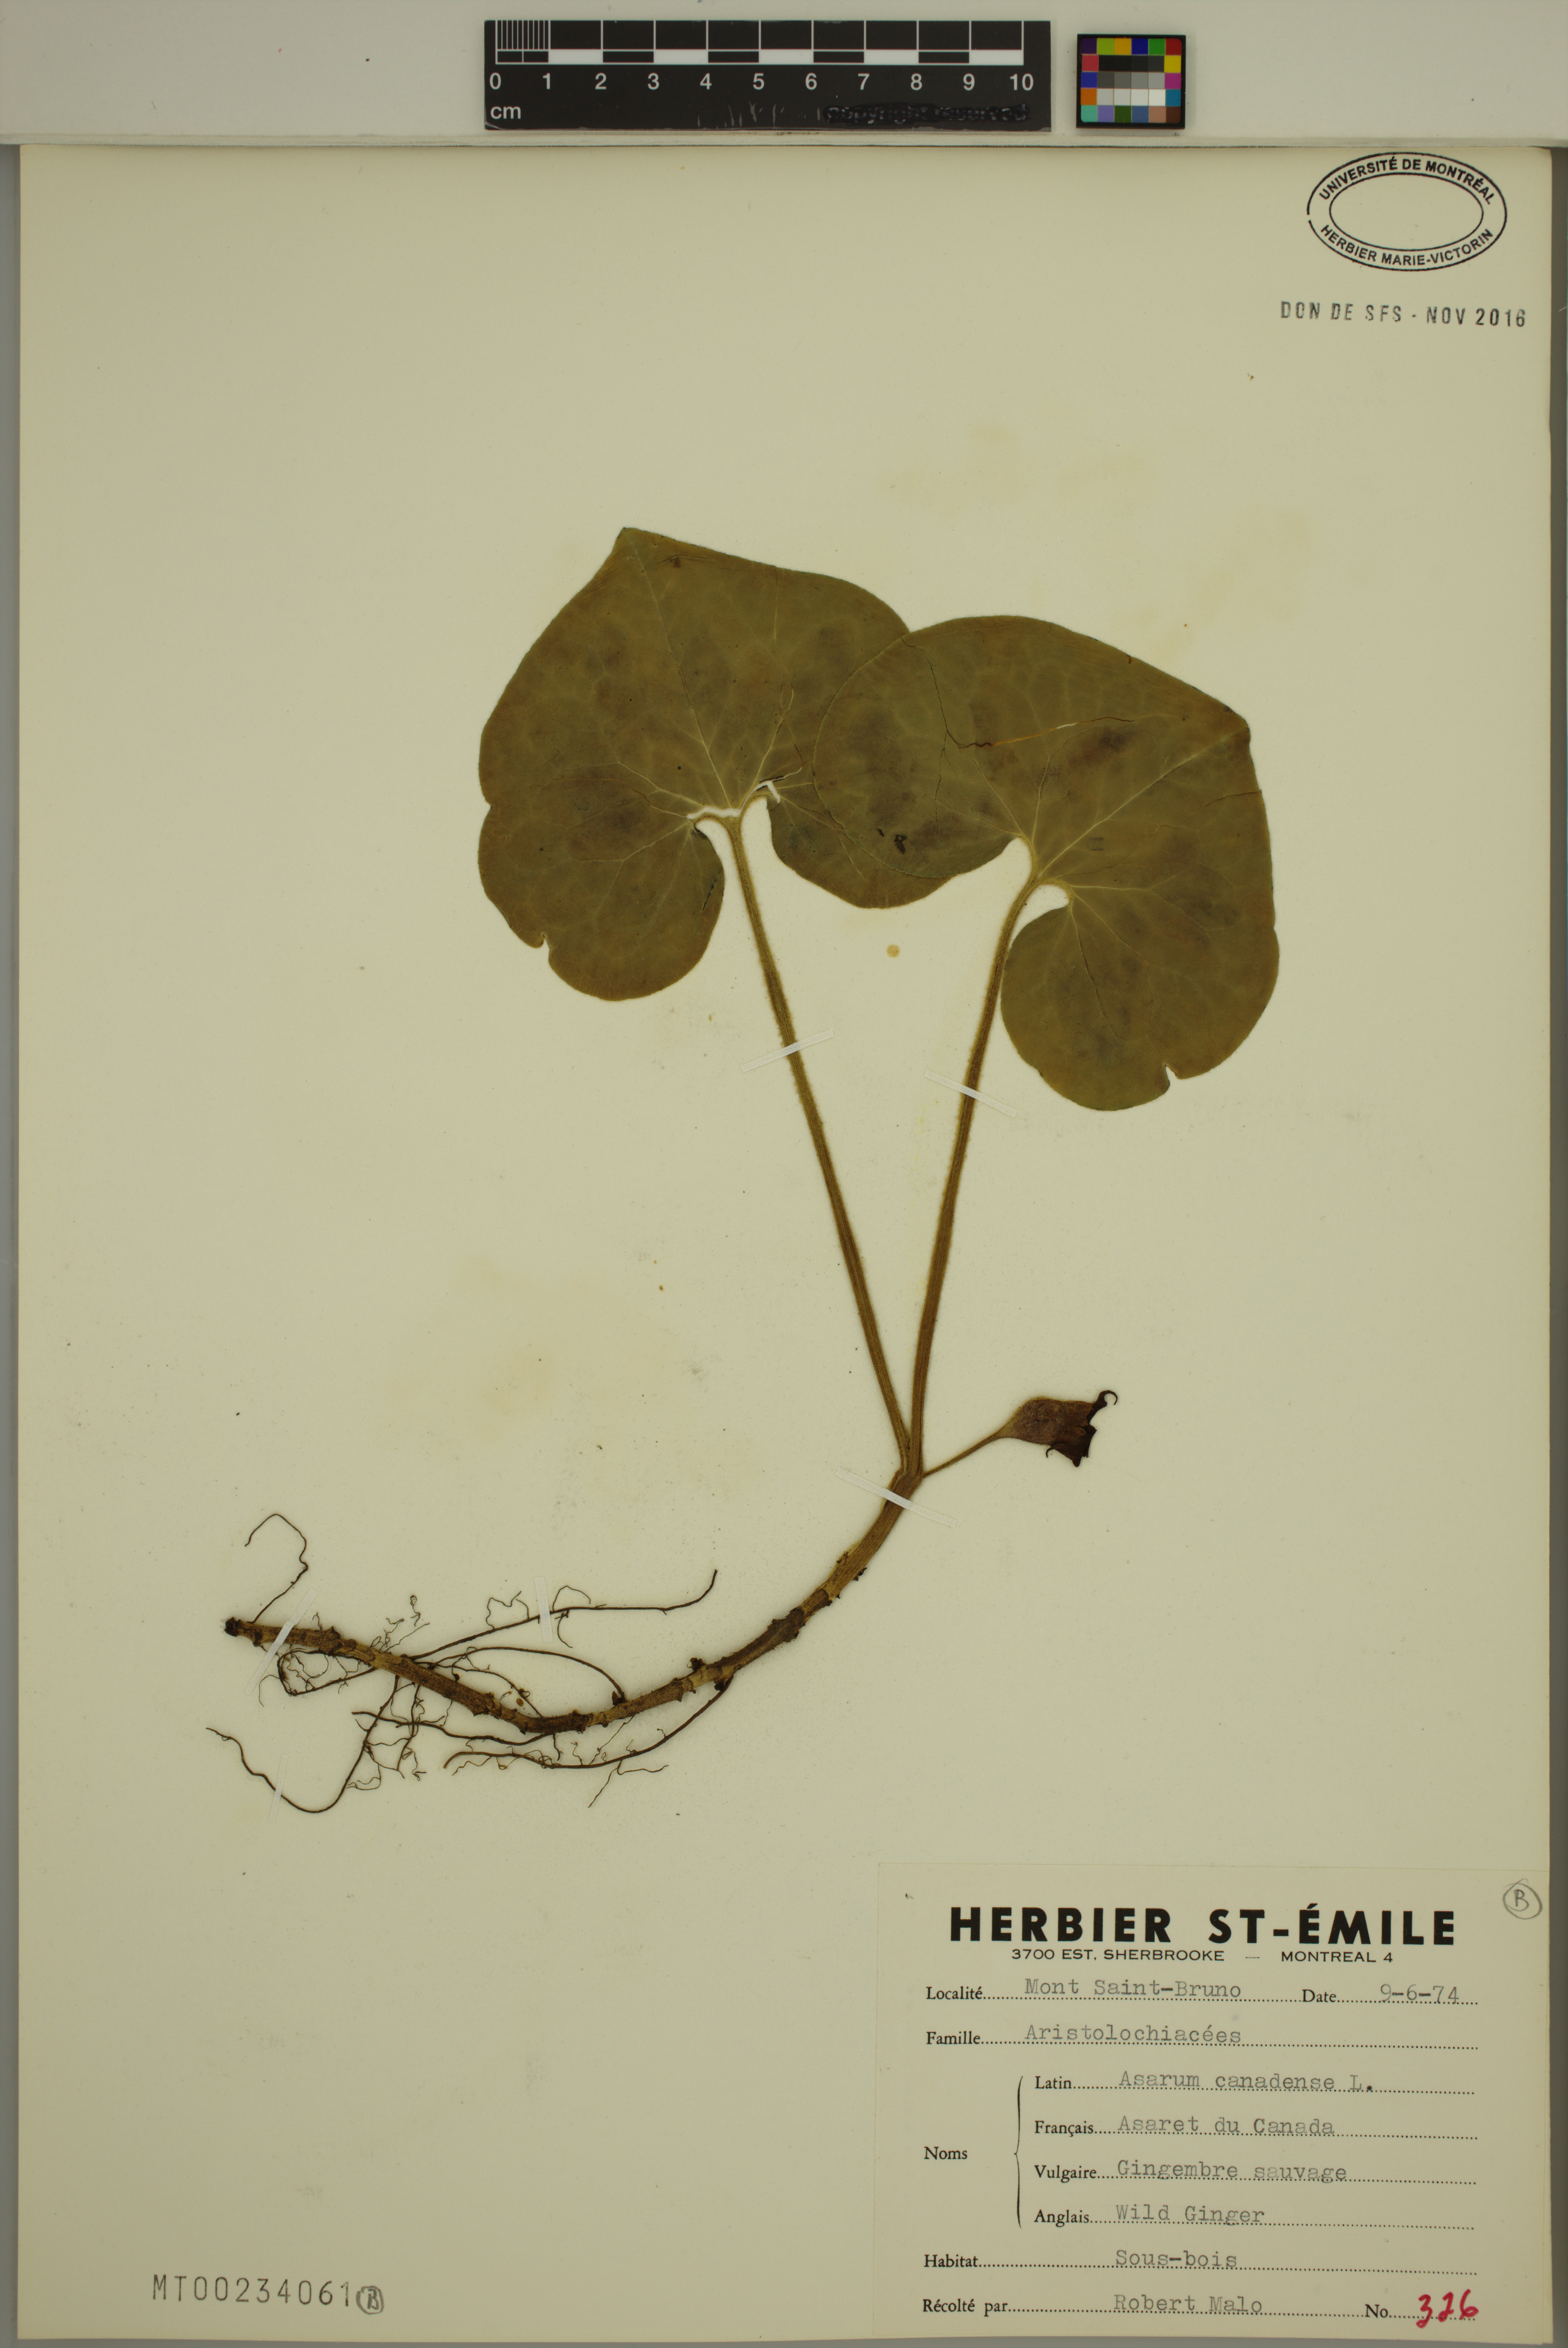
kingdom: Plantae
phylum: Tracheophyta
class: Magnoliopsida
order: Piperales
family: Aristolochiaceae
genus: Asarum
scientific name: Asarum canadense
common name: Wild ginger
